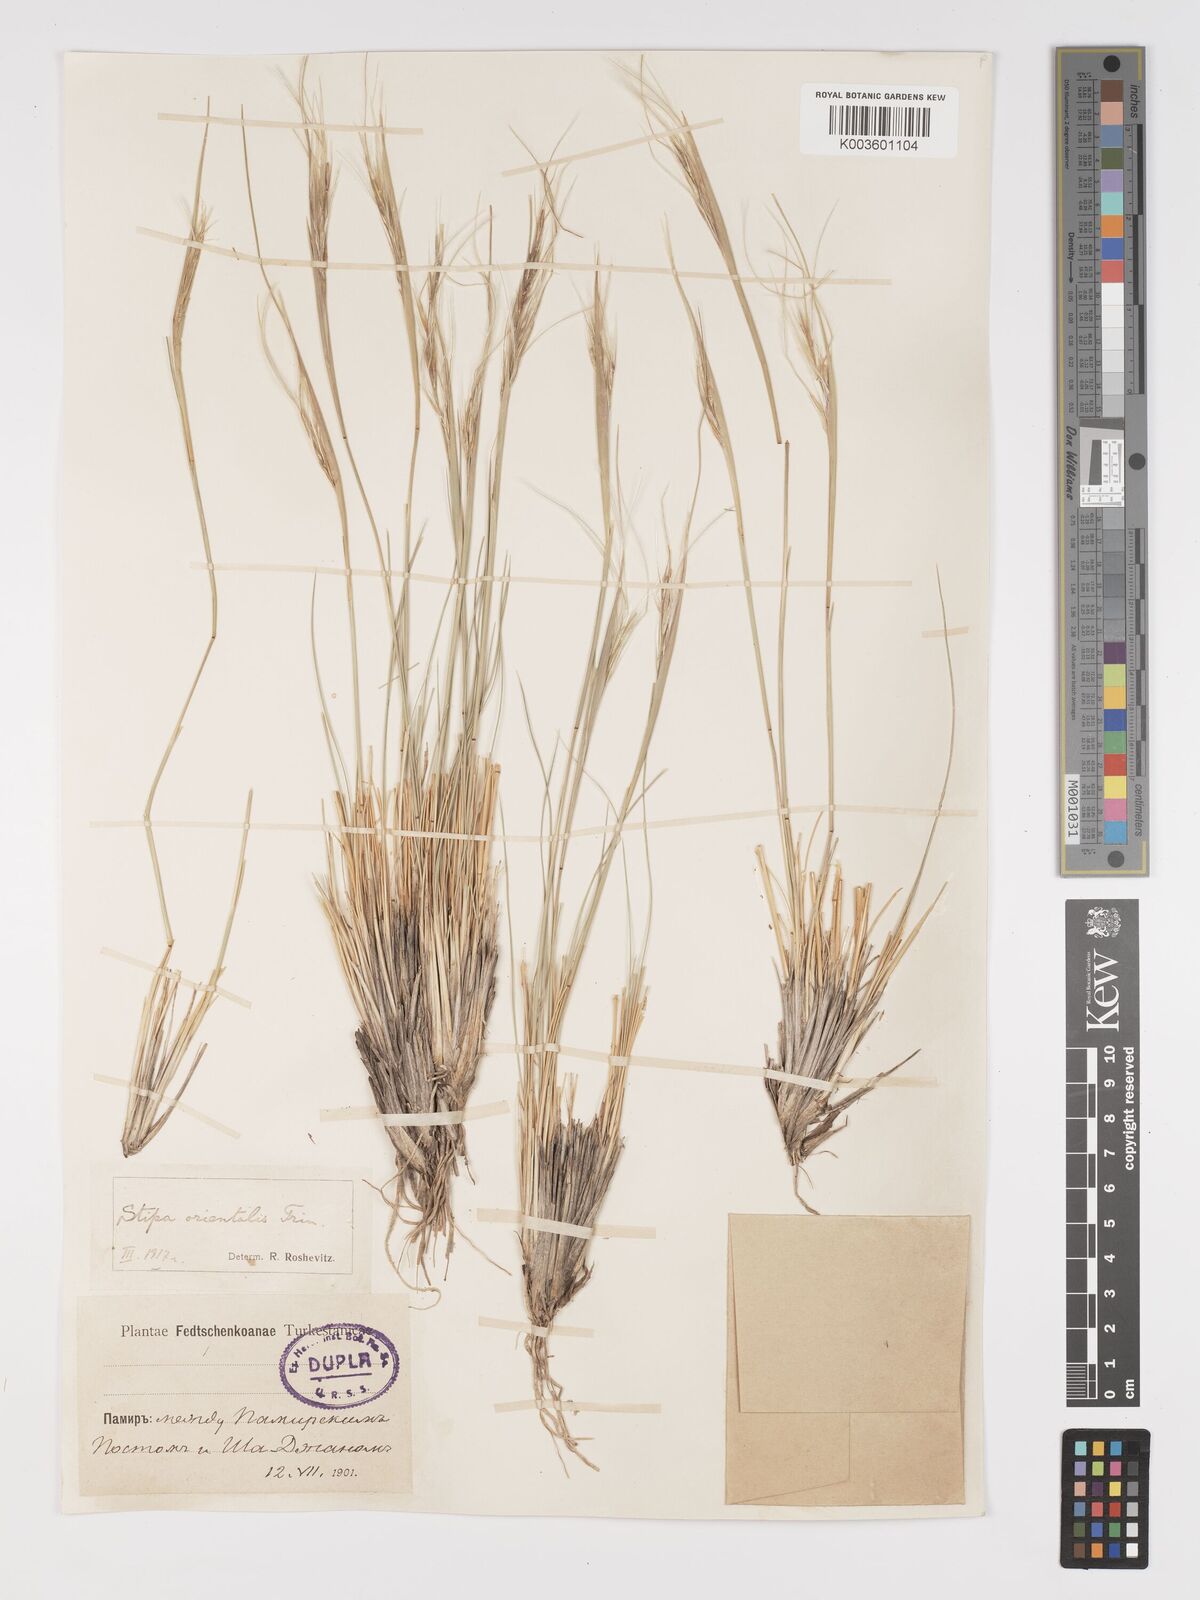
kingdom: Plantae
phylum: Tracheophyta
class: Liliopsida
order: Poales
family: Poaceae
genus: Stipa
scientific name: Stipa orientalis
